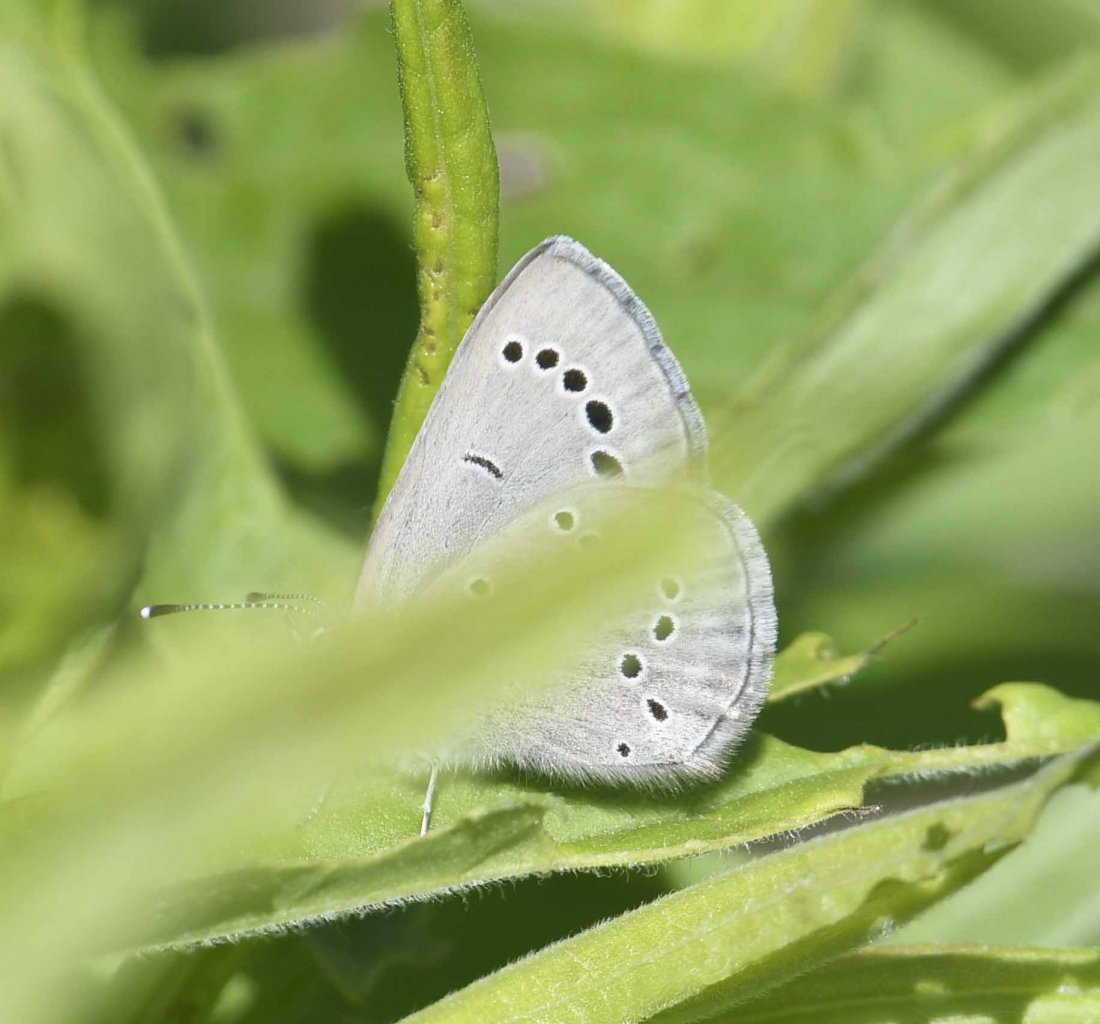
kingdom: Animalia
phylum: Arthropoda
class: Insecta
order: Lepidoptera
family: Lycaenidae
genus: Glaucopsyche
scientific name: Glaucopsyche lygdamus
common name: Silvery Blue
